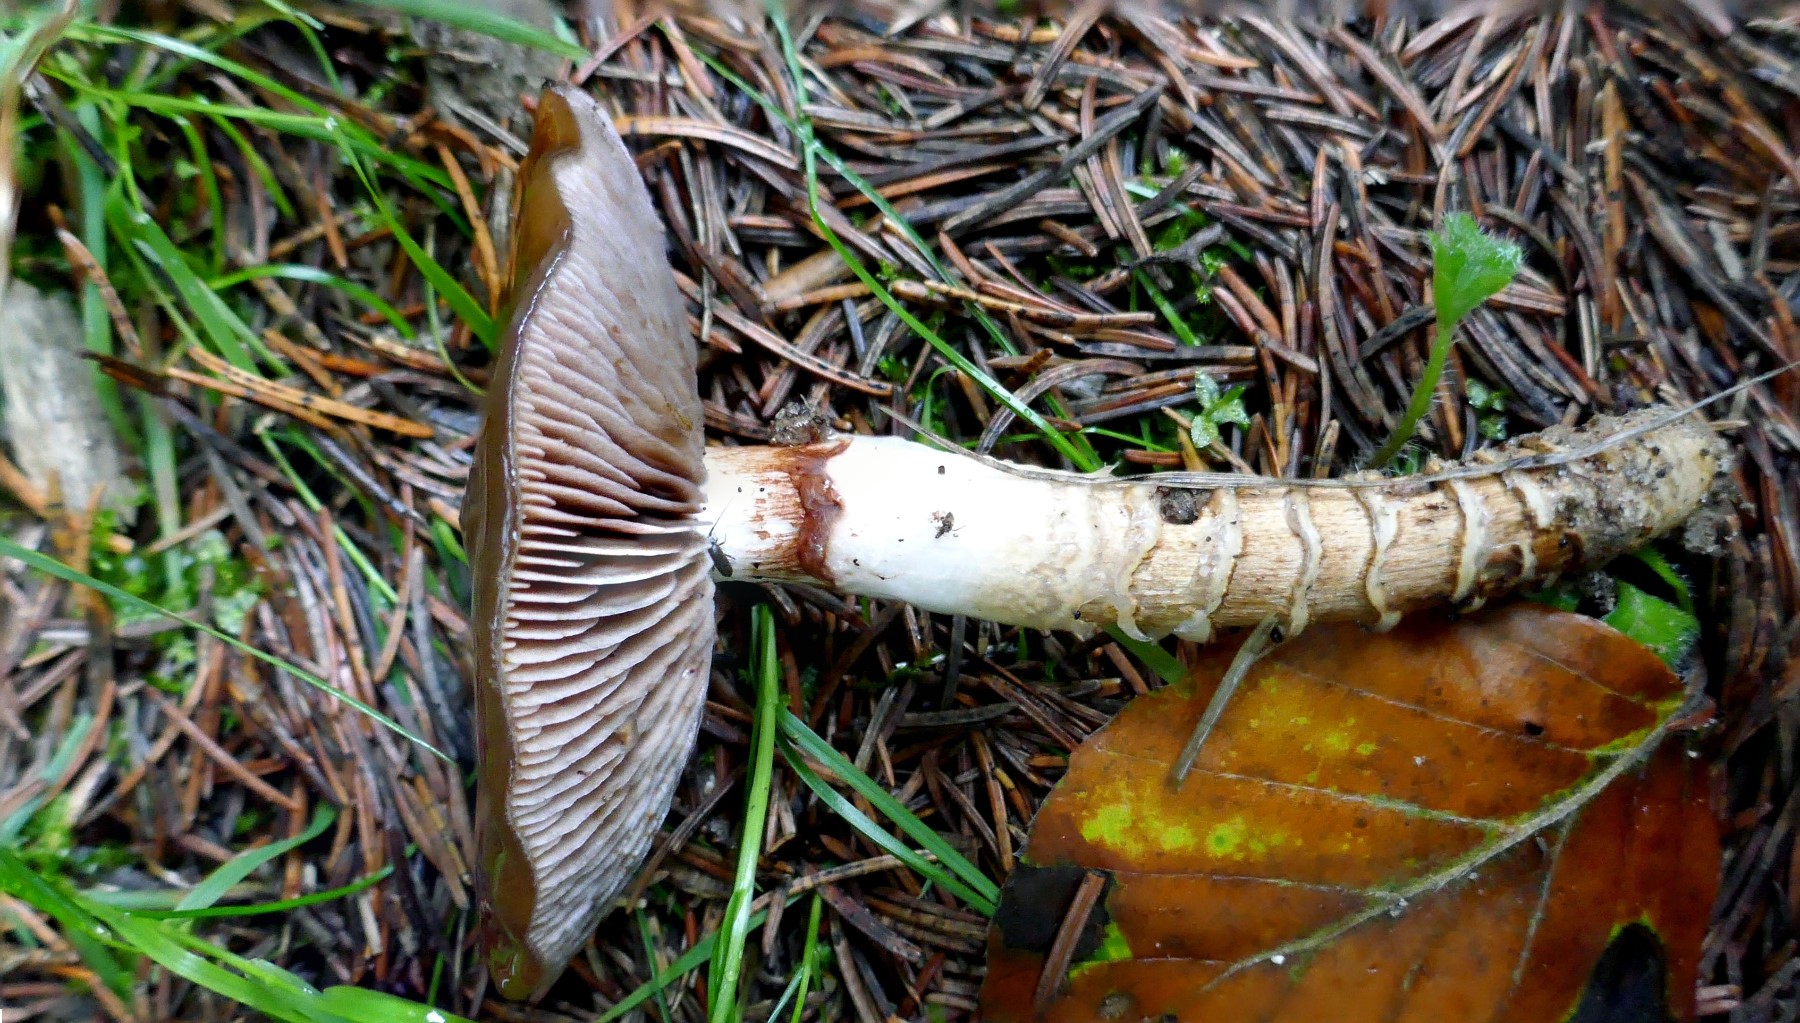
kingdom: Fungi
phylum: Basidiomycota
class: Agaricomycetes
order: Agaricales
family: Cortinariaceae
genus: Cortinarius
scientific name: Cortinarius trivialis
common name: brunslimet slørhat
